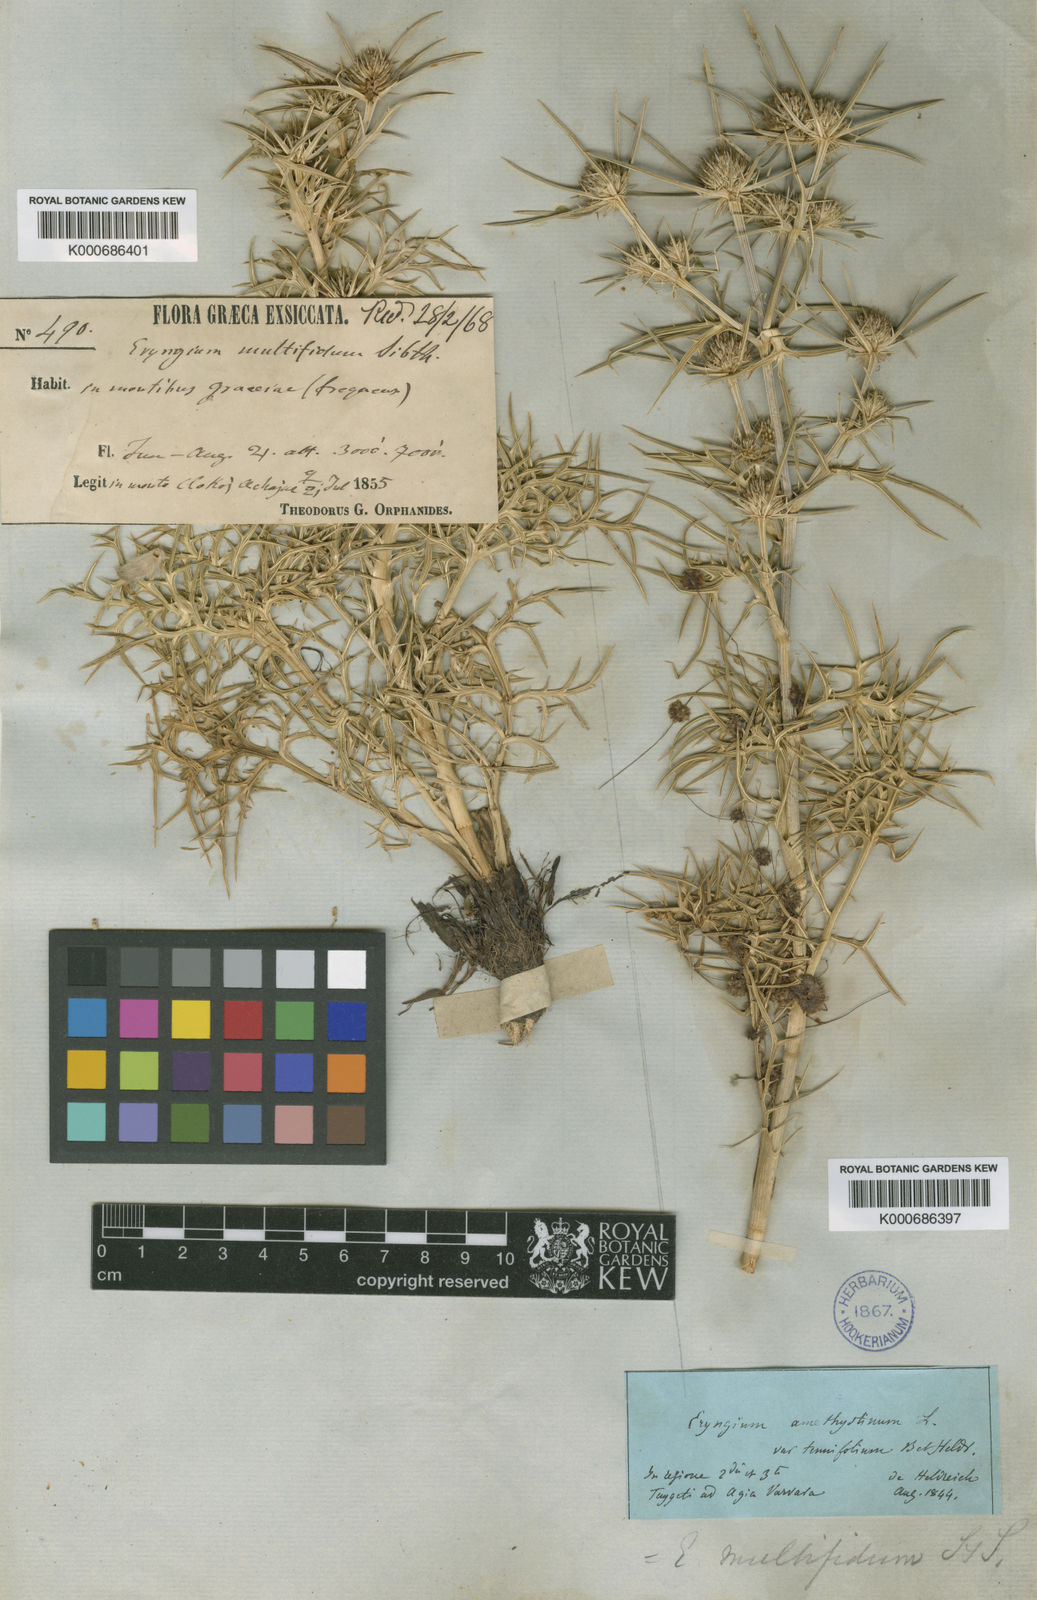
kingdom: Plantae
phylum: Tracheophyta
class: Magnoliopsida
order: Apiales
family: Apiaceae
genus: Eryngium
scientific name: Eryngium amethystinum
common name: Amethyst eryngo
